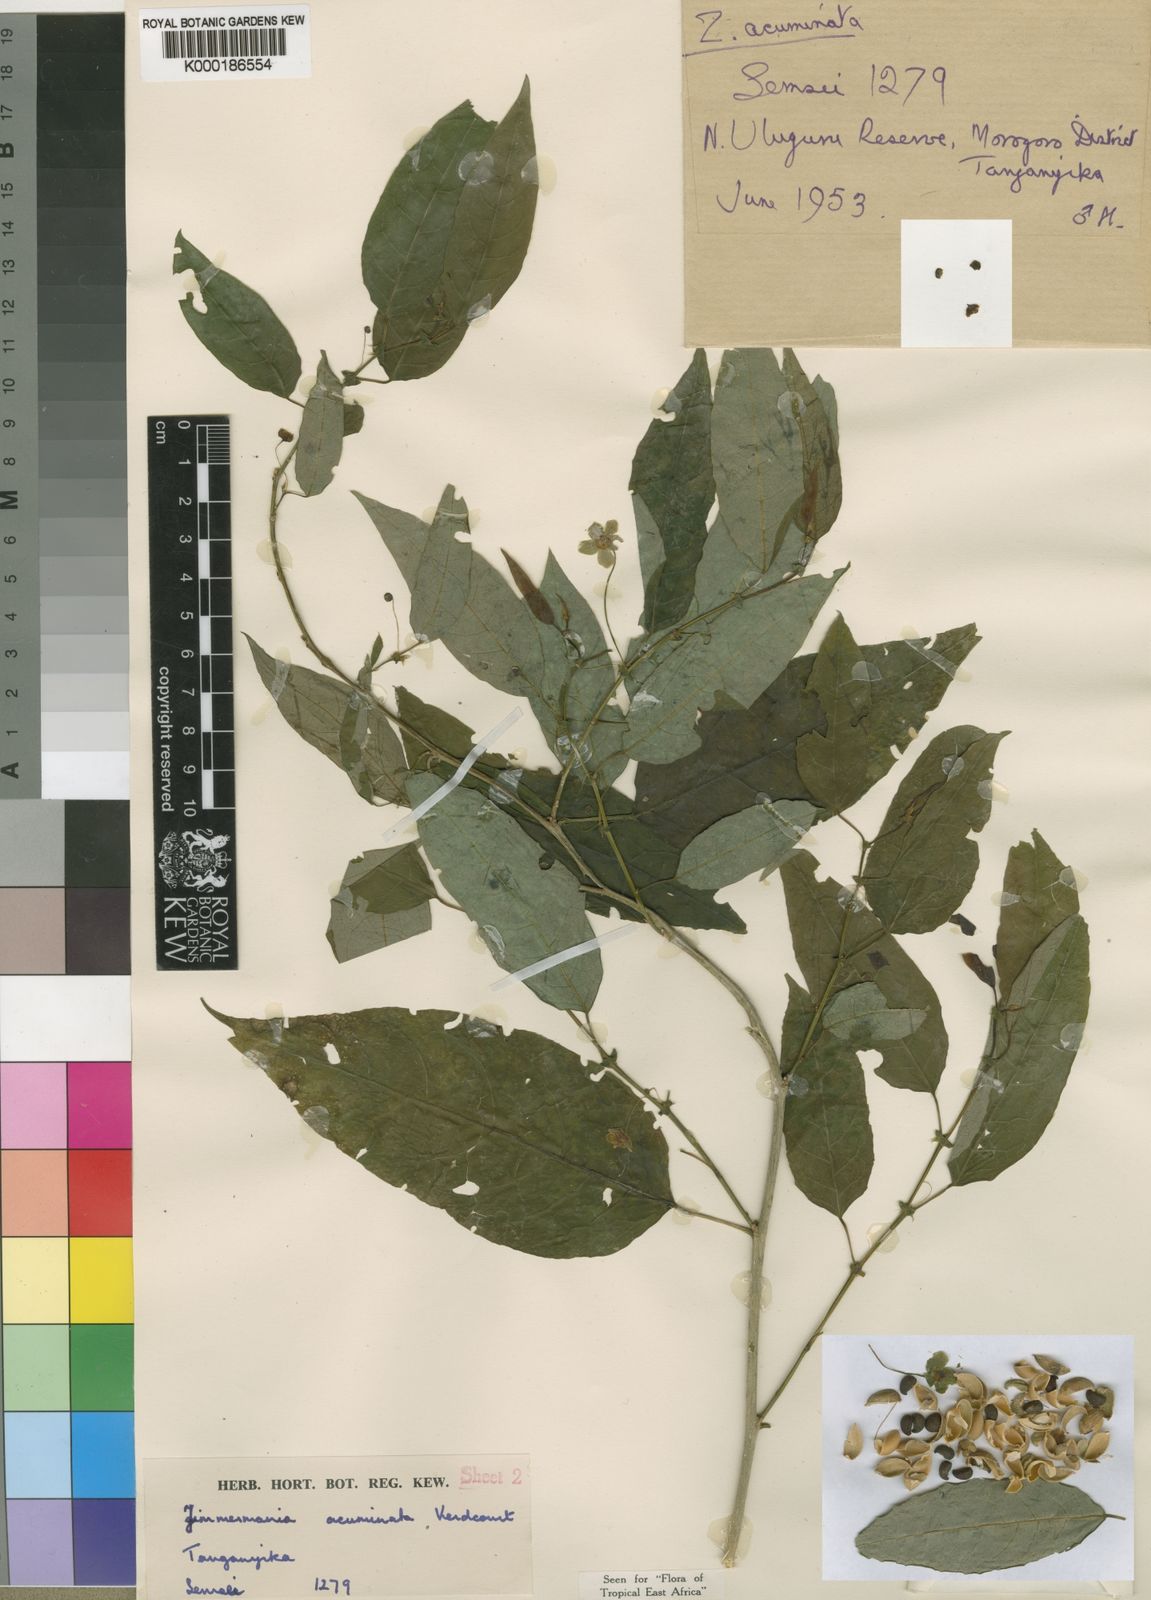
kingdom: Plantae
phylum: Tracheophyta
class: Magnoliopsida
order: Malpighiales
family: Phyllanthaceae
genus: Meineckia
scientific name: Meineckia acuminata
